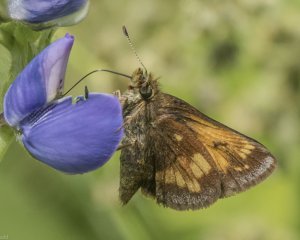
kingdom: Animalia
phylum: Arthropoda
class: Insecta
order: Lepidoptera
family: Hesperiidae
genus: Lon
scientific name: Lon hobomok
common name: Hobomok Skipper
